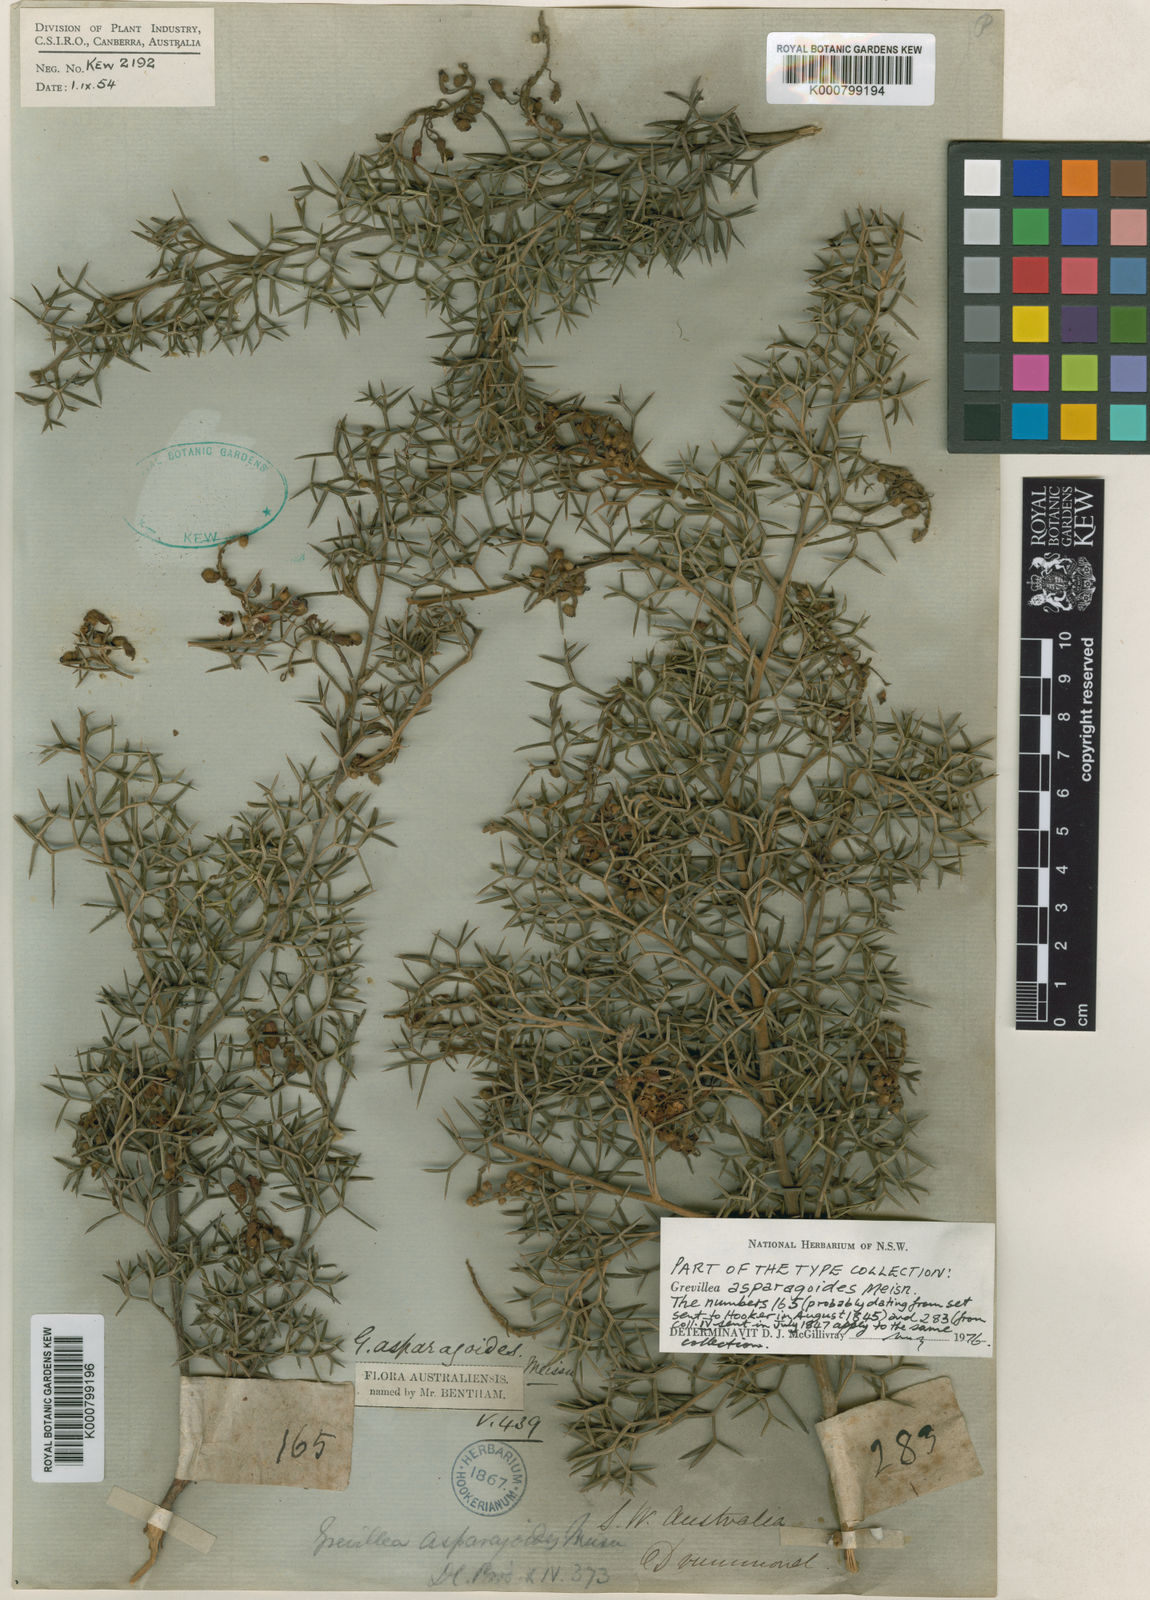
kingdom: Plantae
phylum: Tracheophyta
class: Magnoliopsida
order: Proteales
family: Proteaceae
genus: Grevillea
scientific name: Grevillea asparagoides
